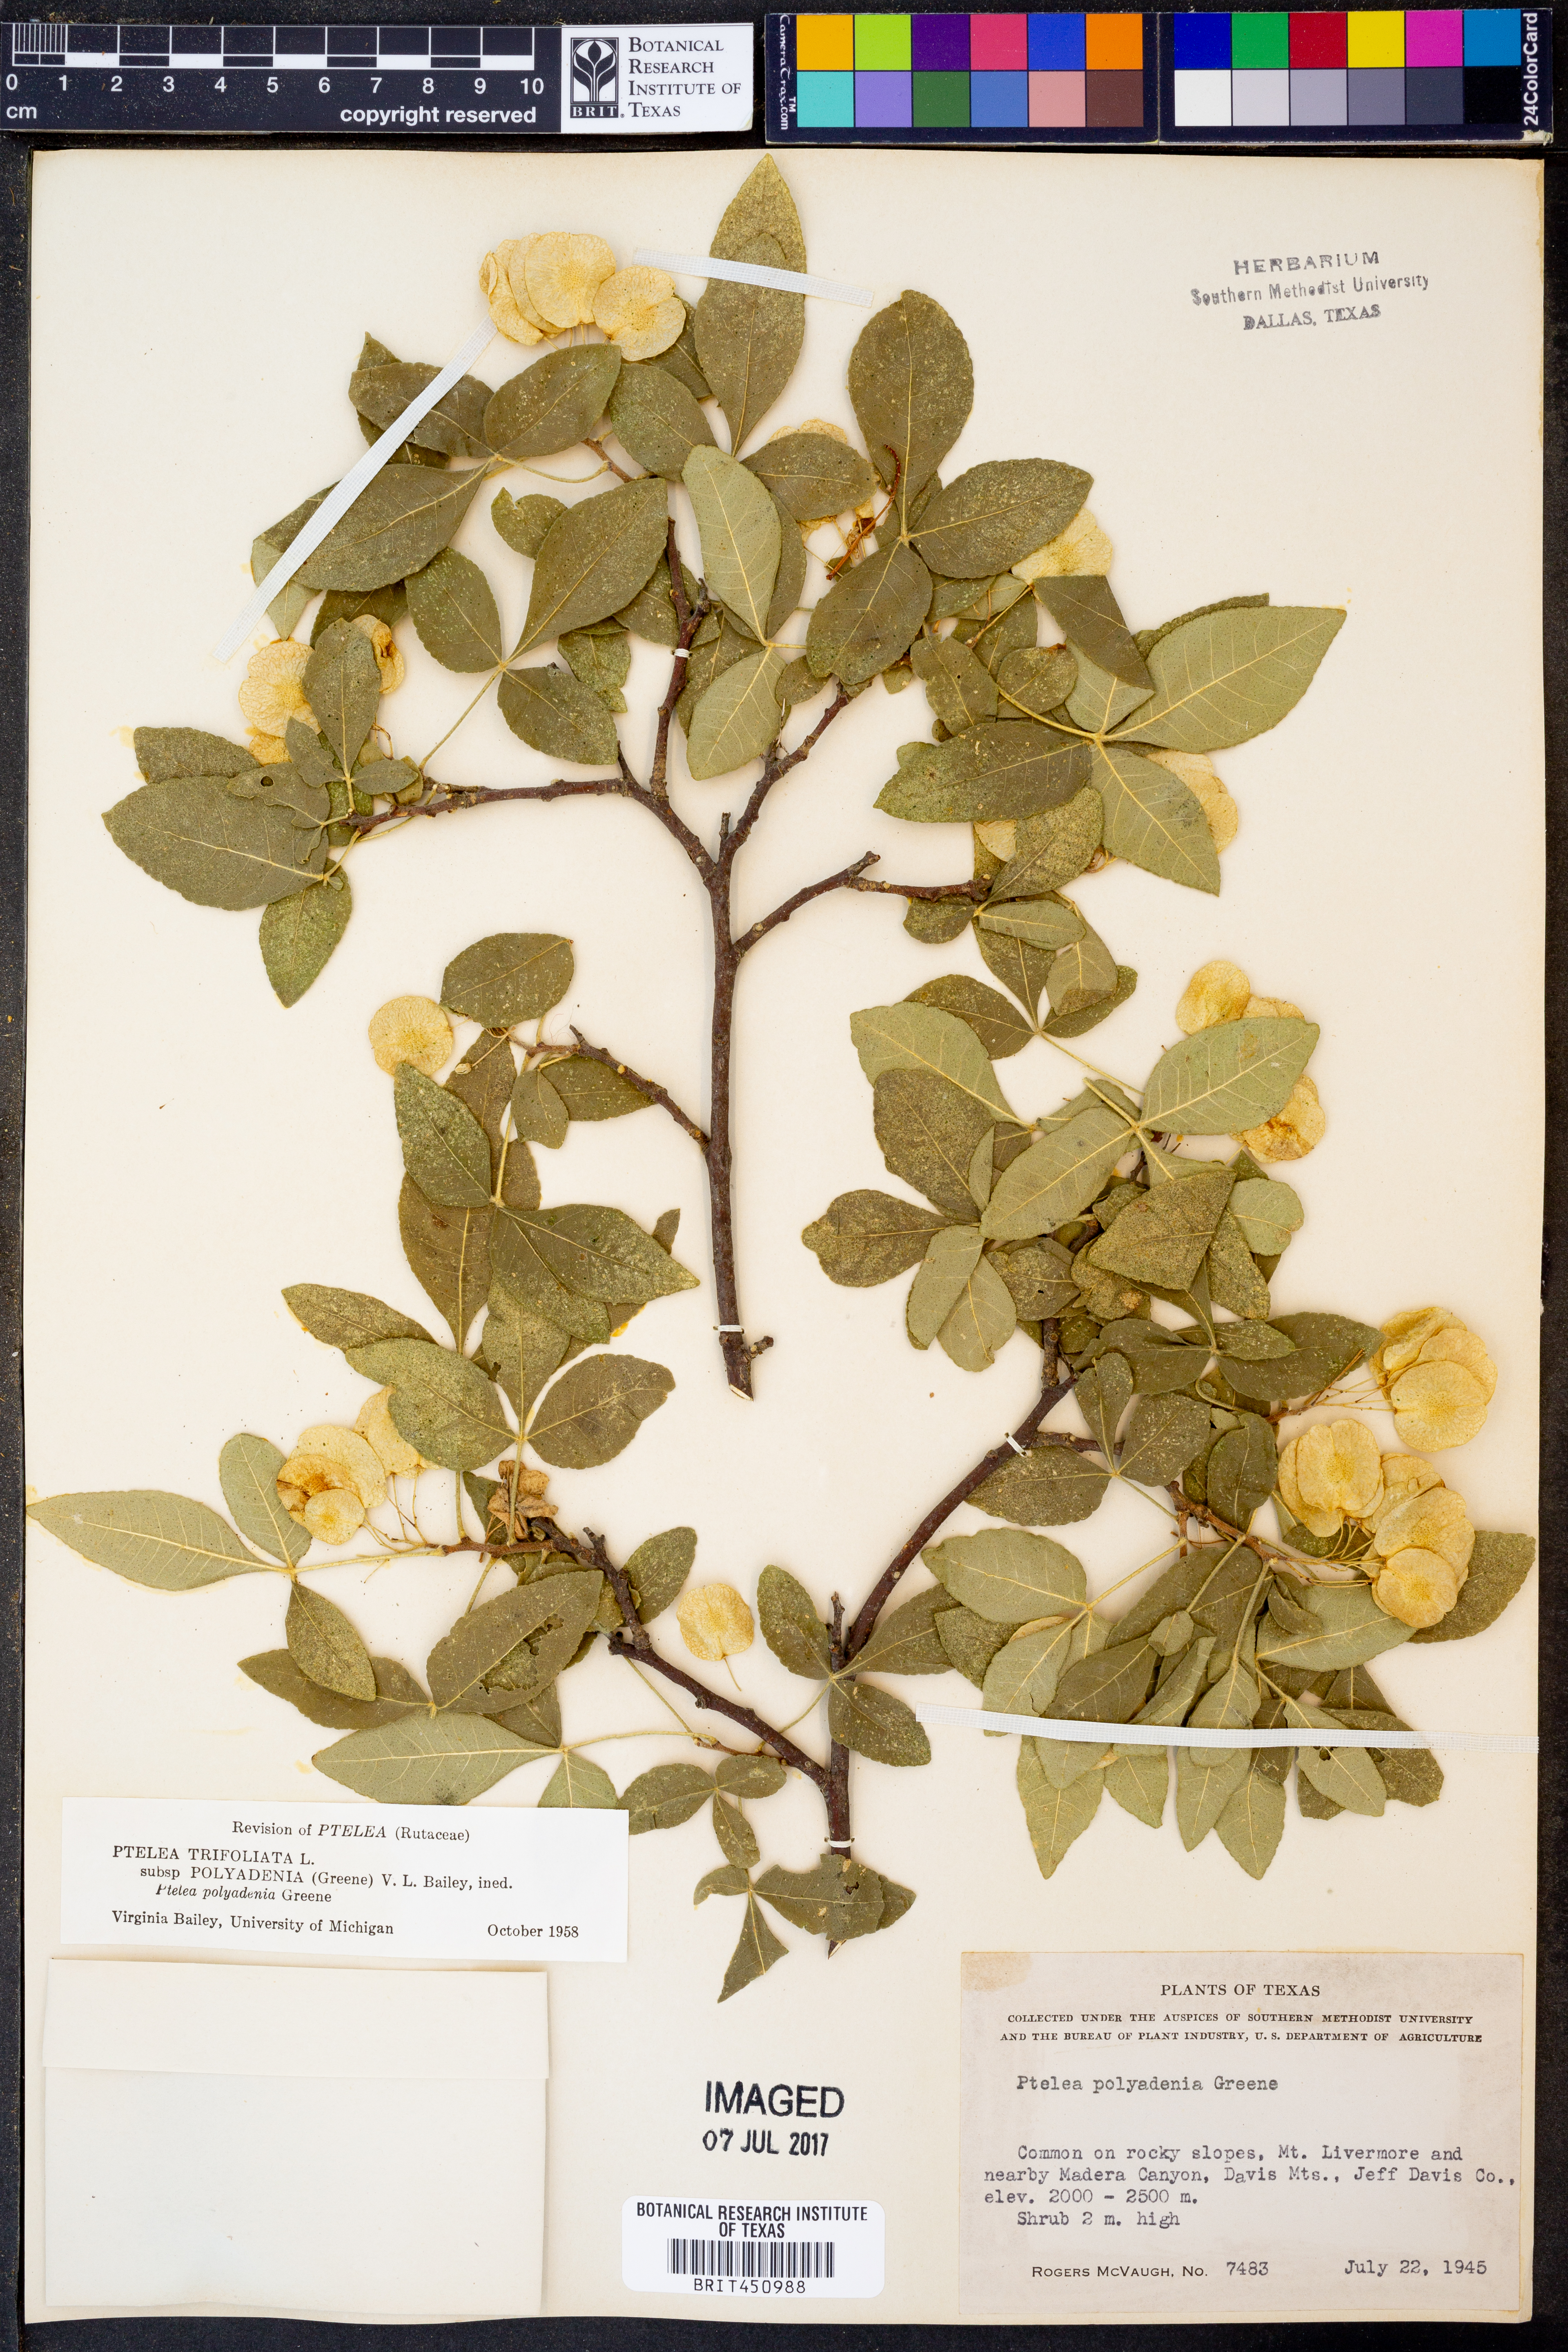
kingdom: Plantae
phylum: Tracheophyta
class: Magnoliopsida
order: Sapindales
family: Rutaceae
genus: Ptelea
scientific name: Ptelea trifoliata
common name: Common hop-tree
